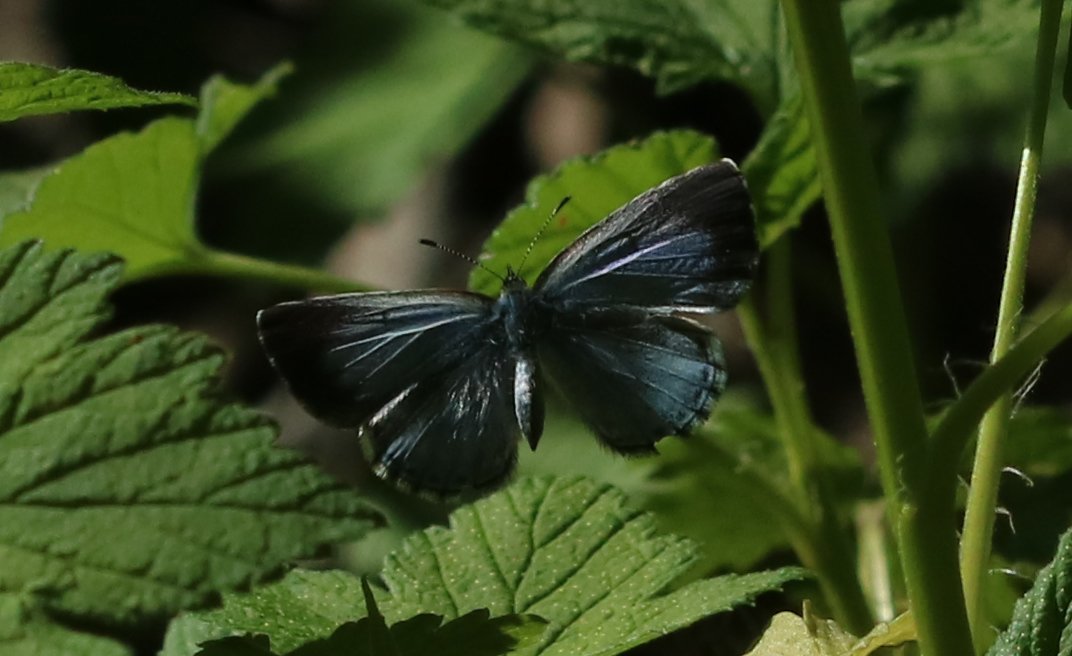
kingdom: Animalia
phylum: Arthropoda
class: Insecta
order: Lepidoptera
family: Lycaenidae
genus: Celastrina
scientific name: Celastrina ladon
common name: Spring Azure
